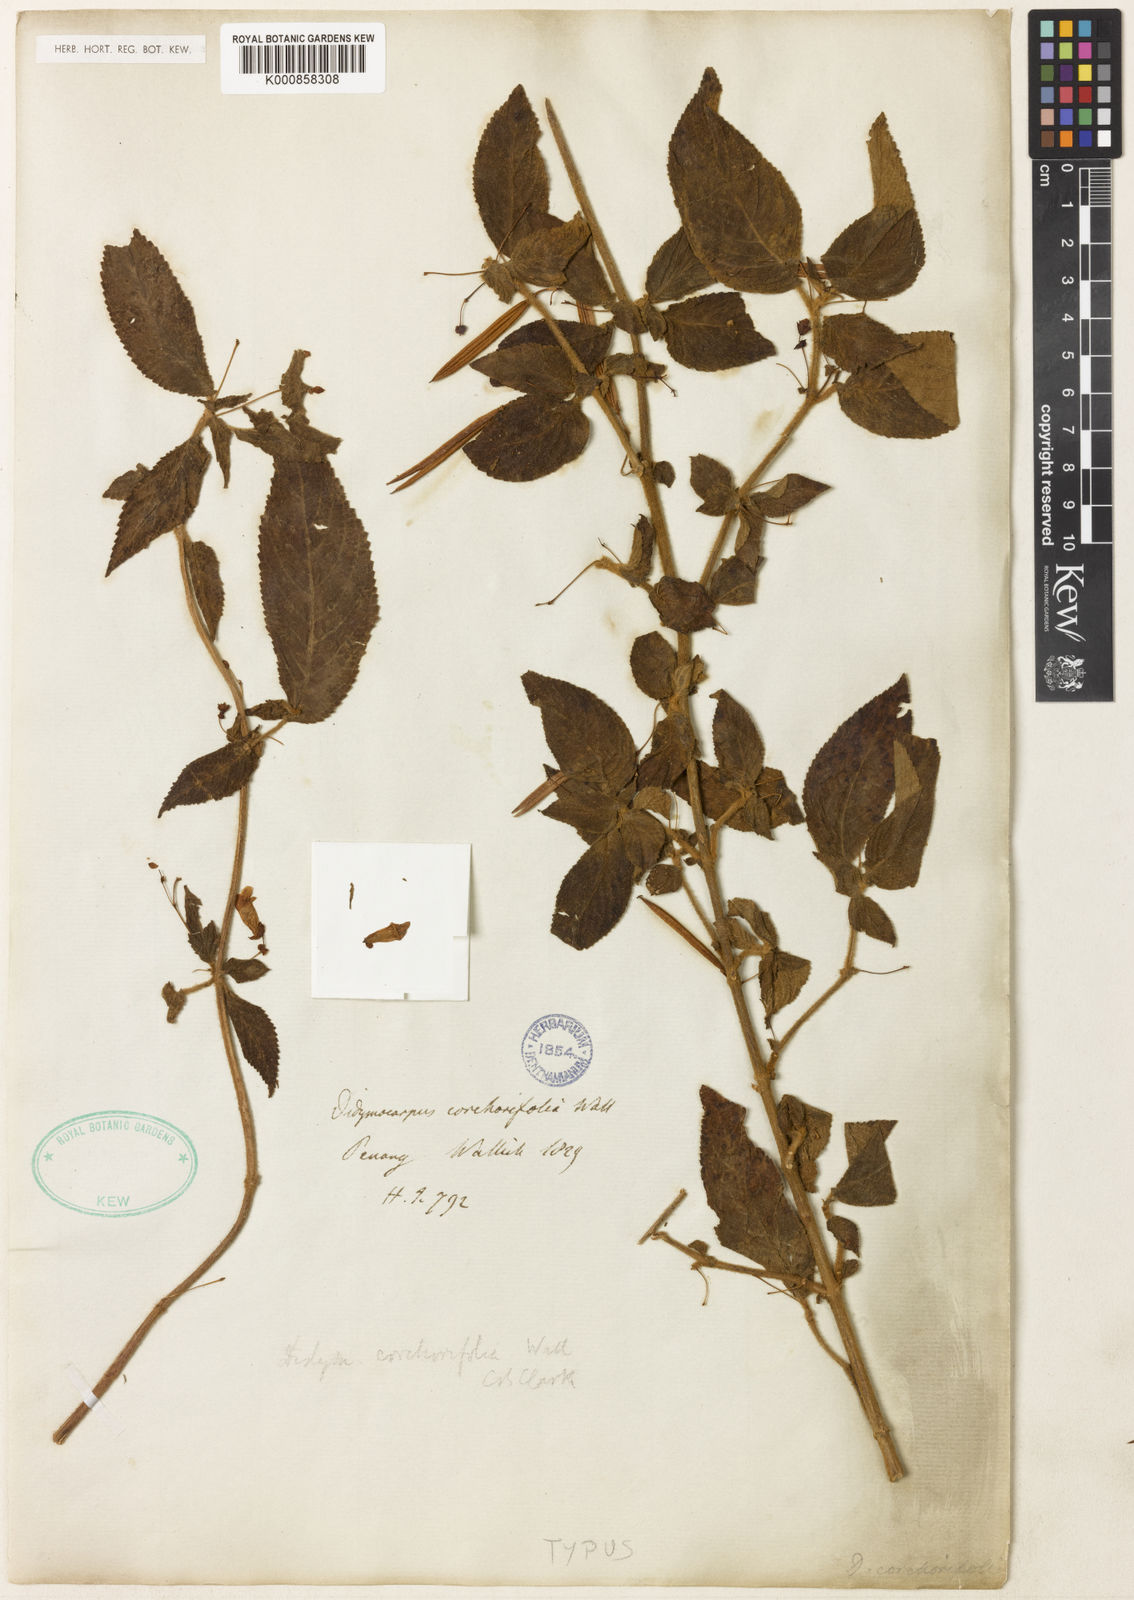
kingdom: Plantae
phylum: Tracheophyta
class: Magnoliopsida
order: Lamiales
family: Gesneriaceae
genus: Didymocarpus
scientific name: Didymocarpus
